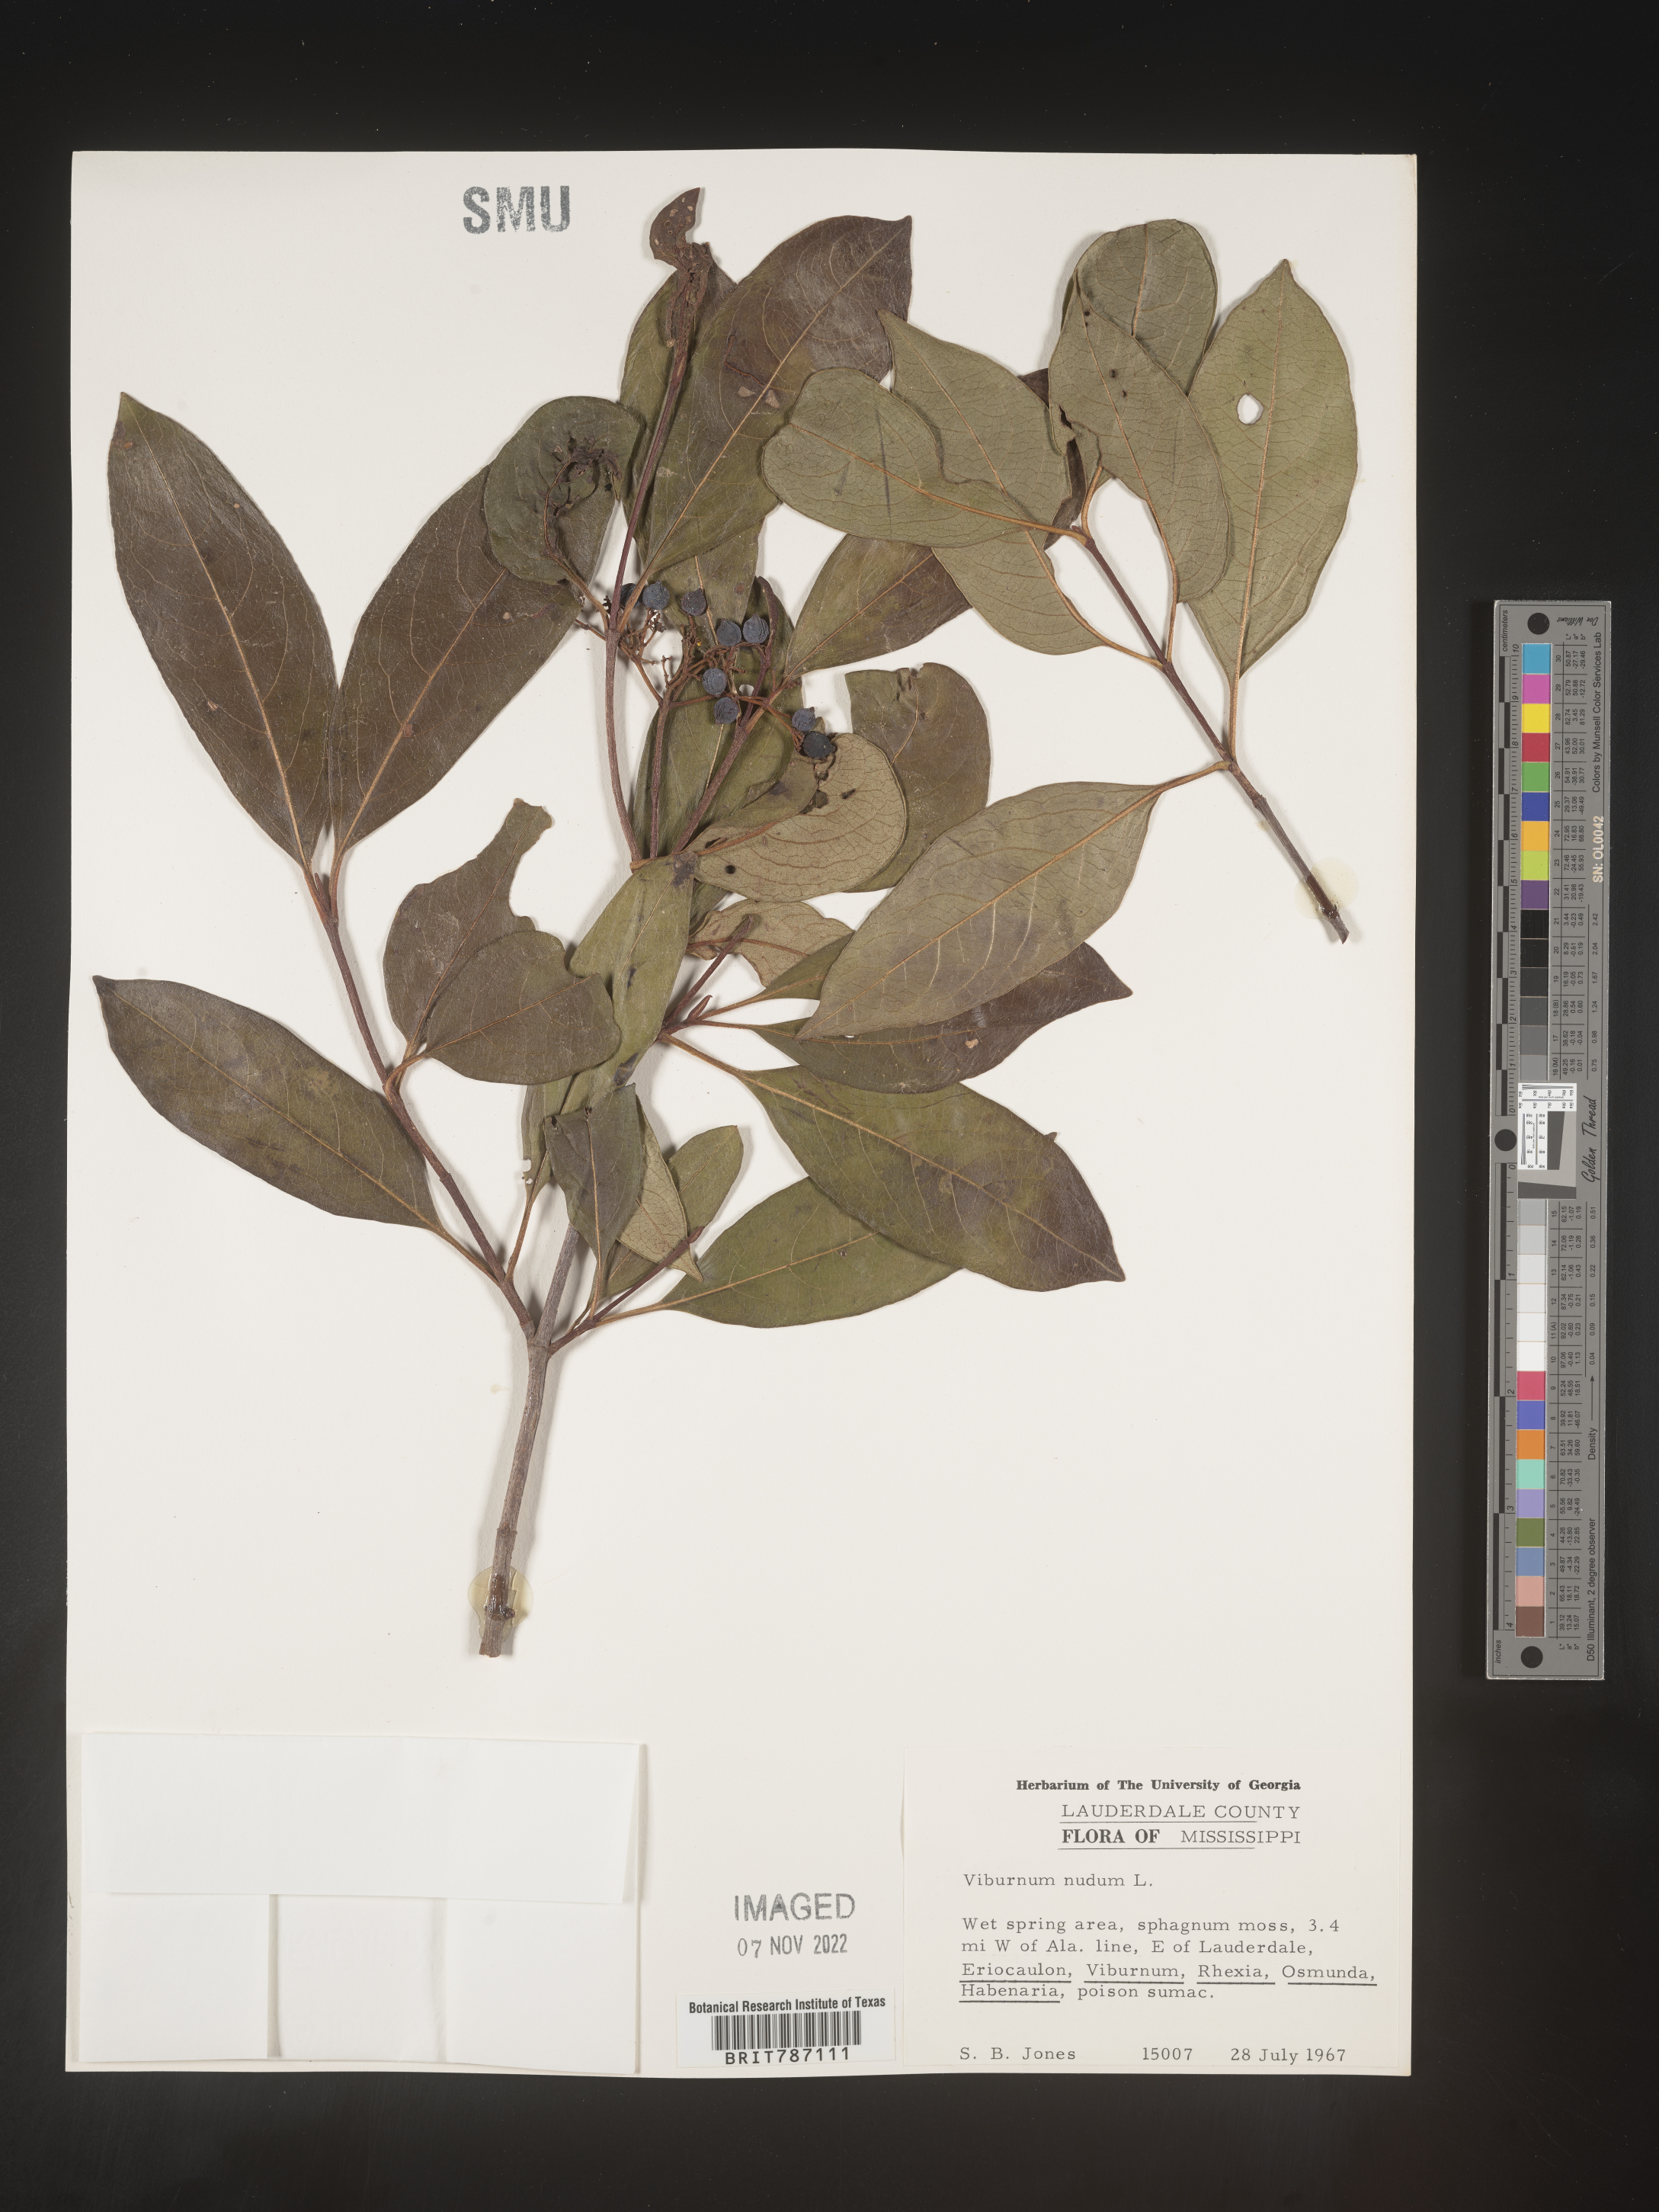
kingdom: Plantae
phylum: Tracheophyta
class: Magnoliopsida
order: Dipsacales
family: Viburnaceae
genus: Viburnum
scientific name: Viburnum nudum
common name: Possum haw
